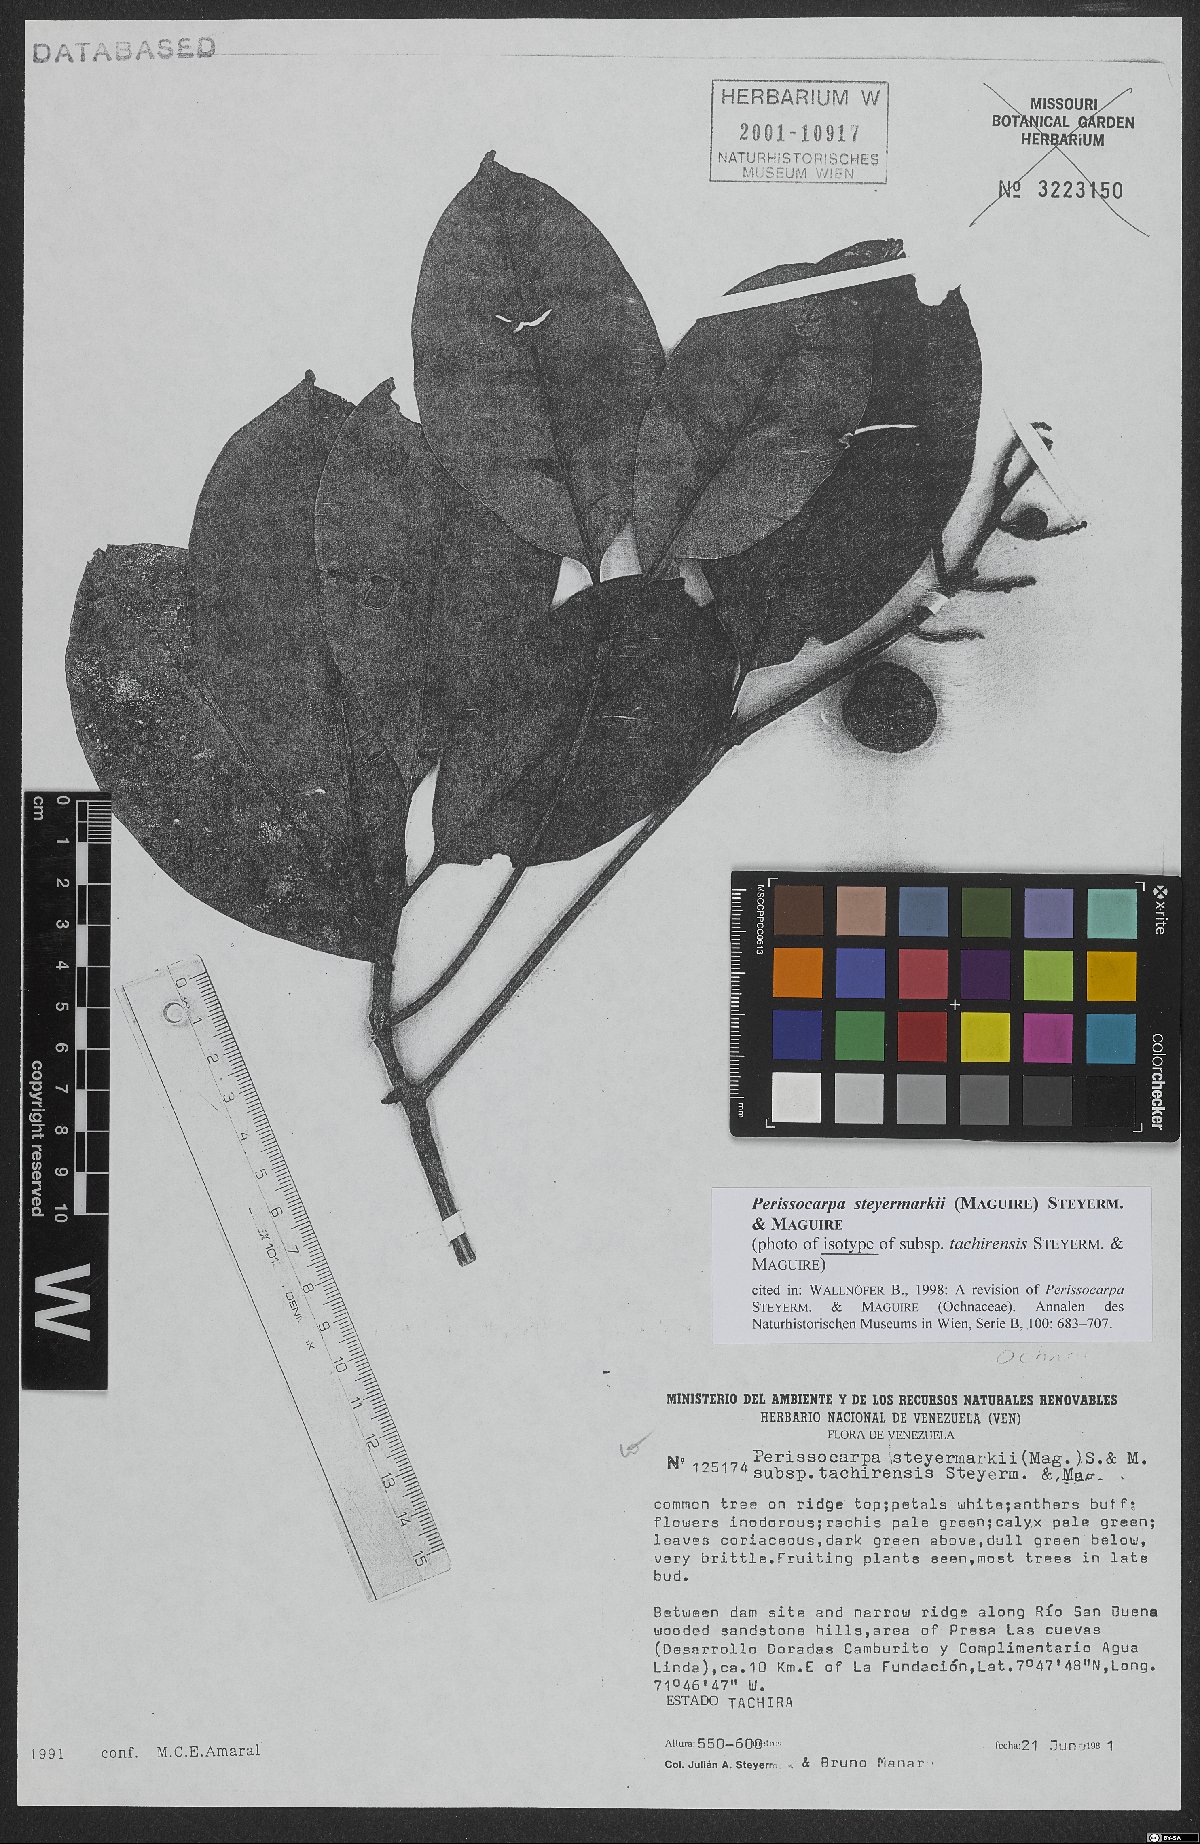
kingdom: Plantae
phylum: Tracheophyta
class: Magnoliopsida
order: Malpighiales
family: Ochnaceae
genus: Perissocarpa
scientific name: Perissocarpa steyermarkii
